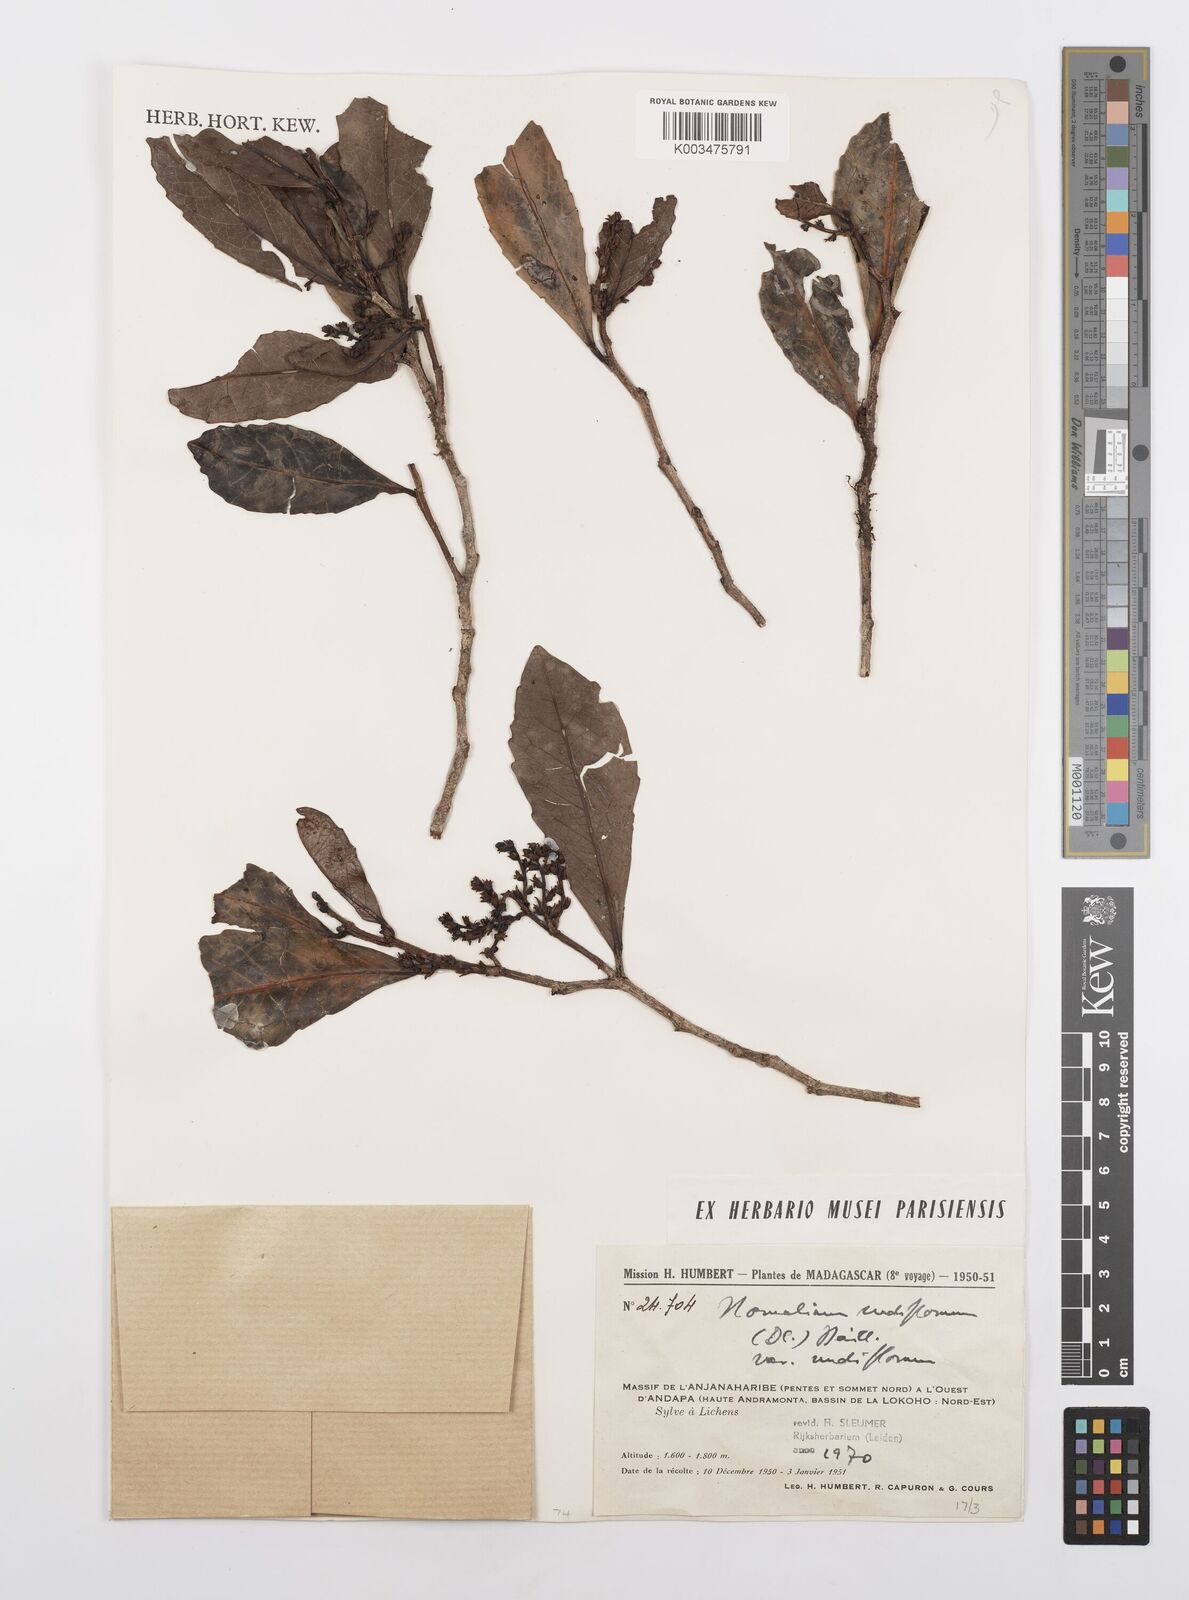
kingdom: Plantae
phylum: Tracheophyta
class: Magnoliopsida
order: Malpighiales
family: Salicaceae
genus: Homalium
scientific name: Homalium nudiflorum
